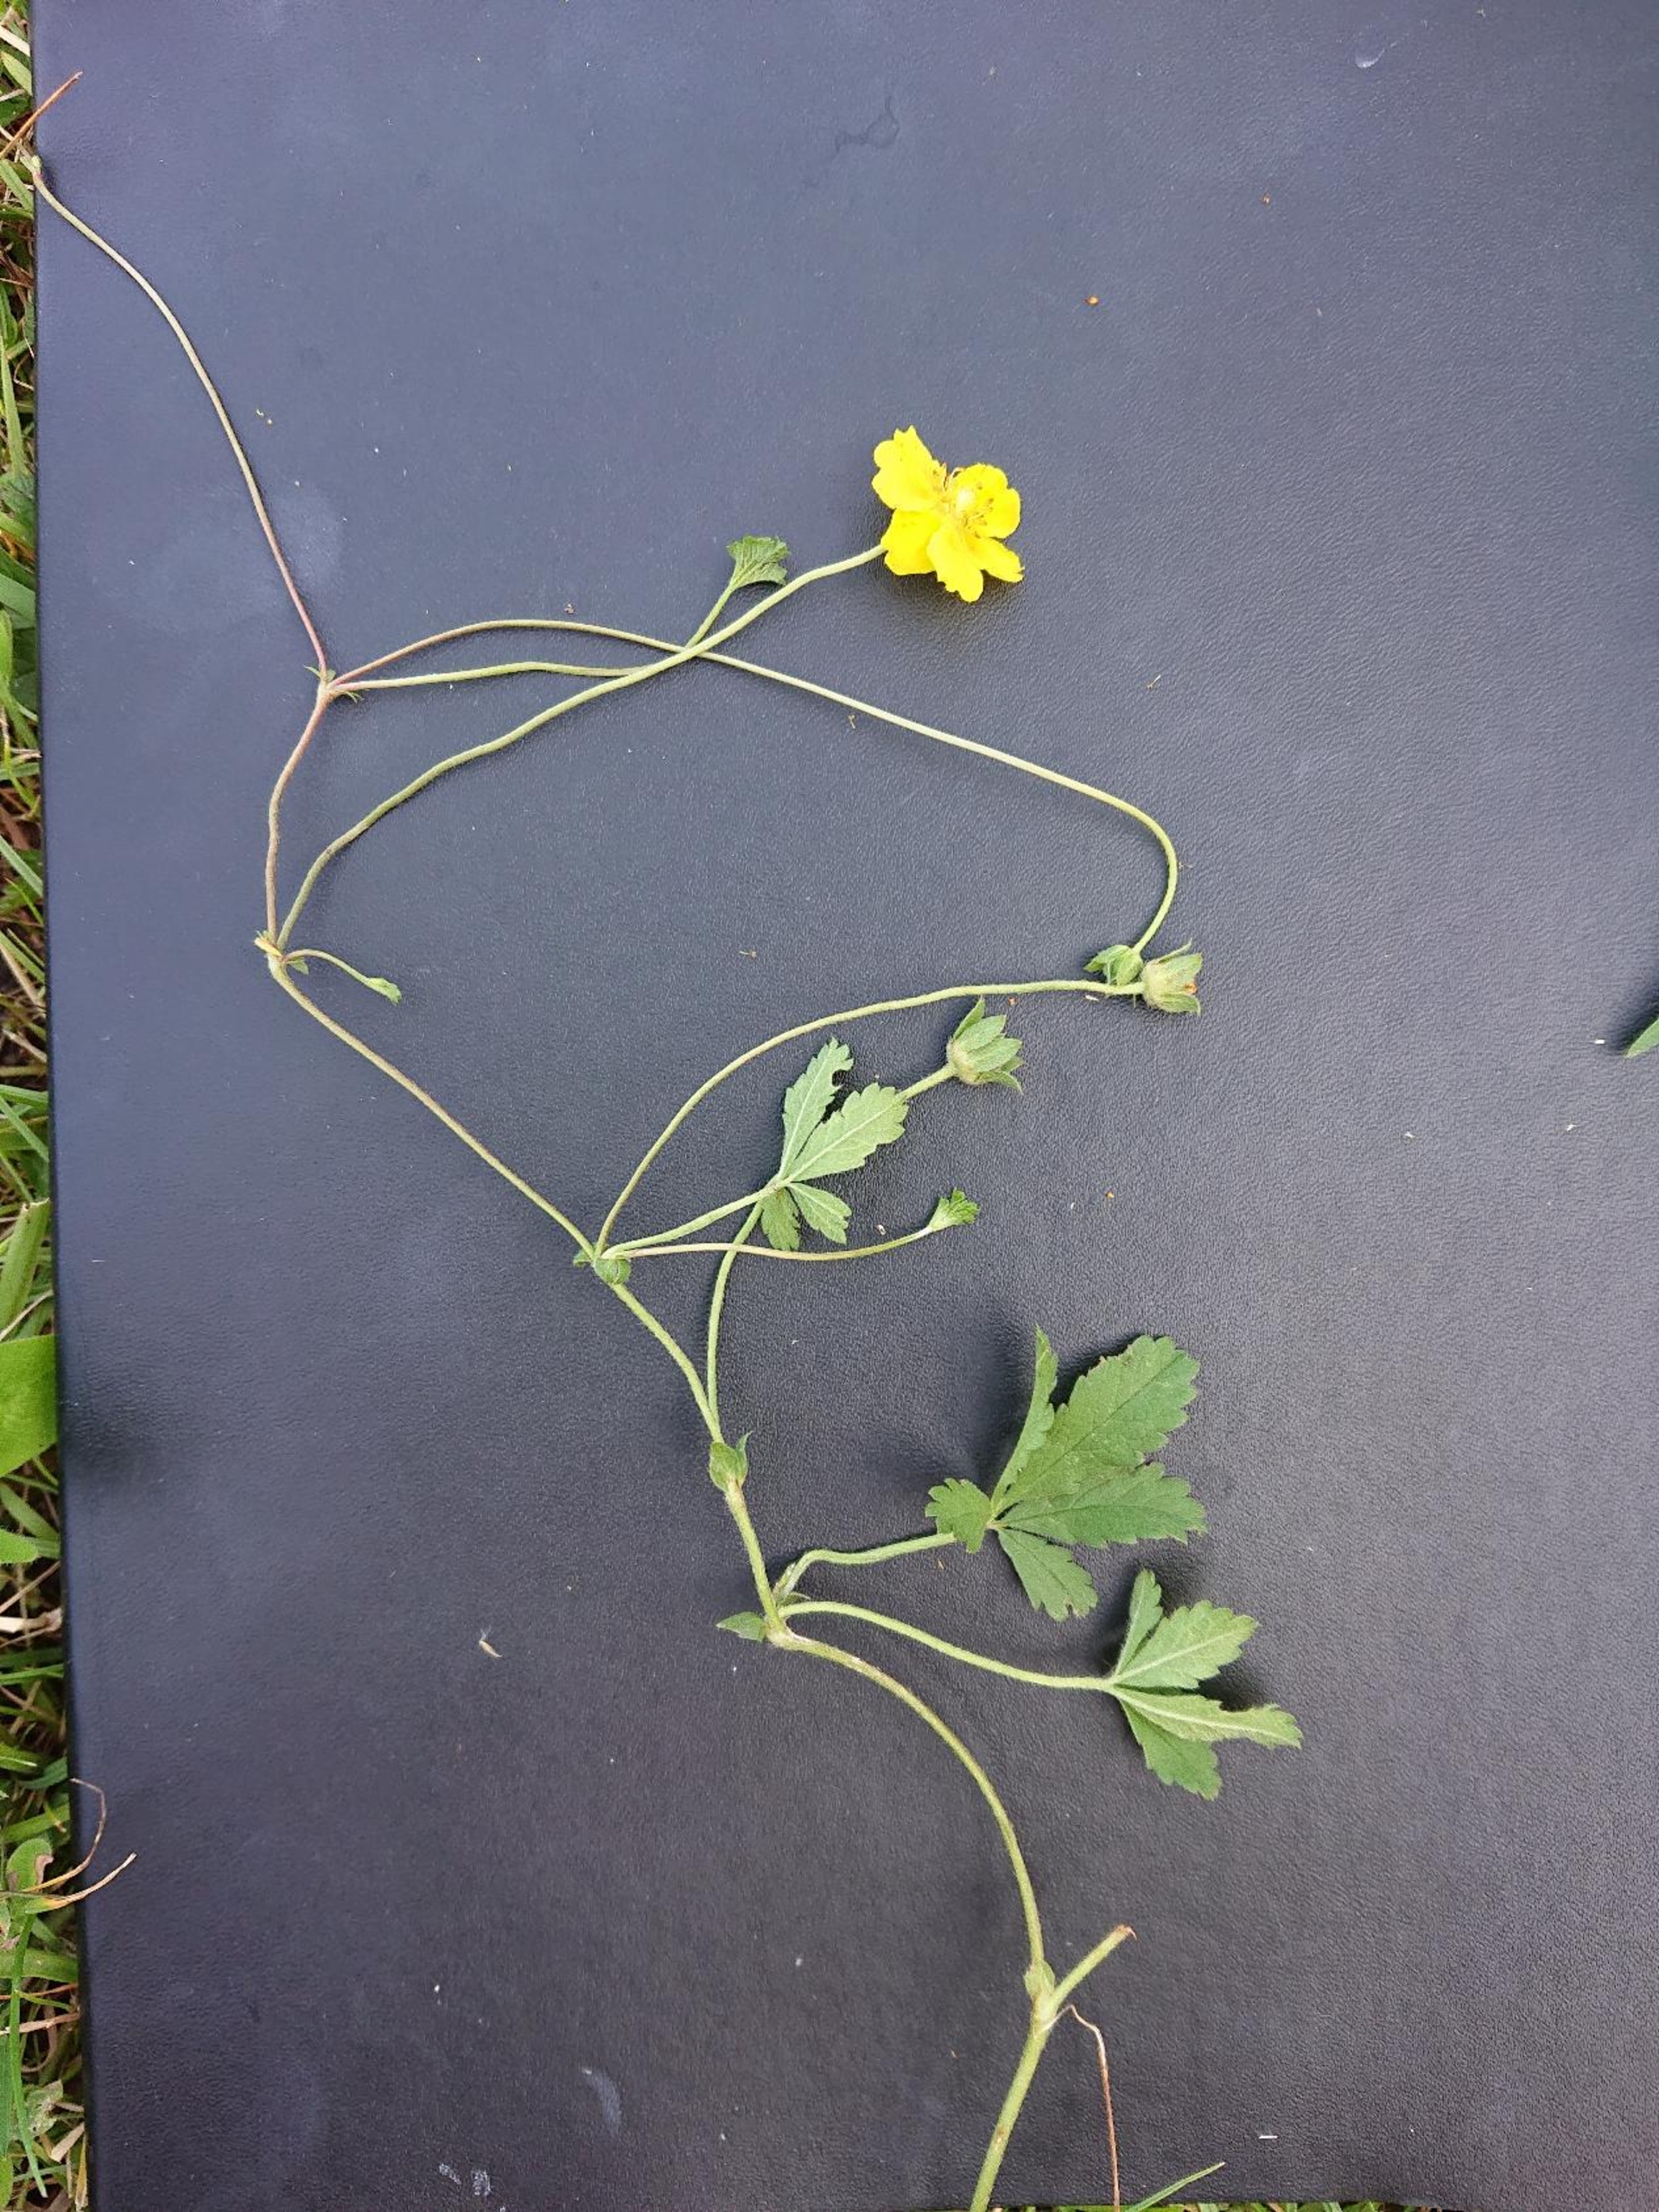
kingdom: Plantae
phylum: Tracheophyta
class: Magnoliopsida
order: Rosales
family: Rosaceae
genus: Potentilla
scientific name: Potentilla reptans
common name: Krybende potentil
